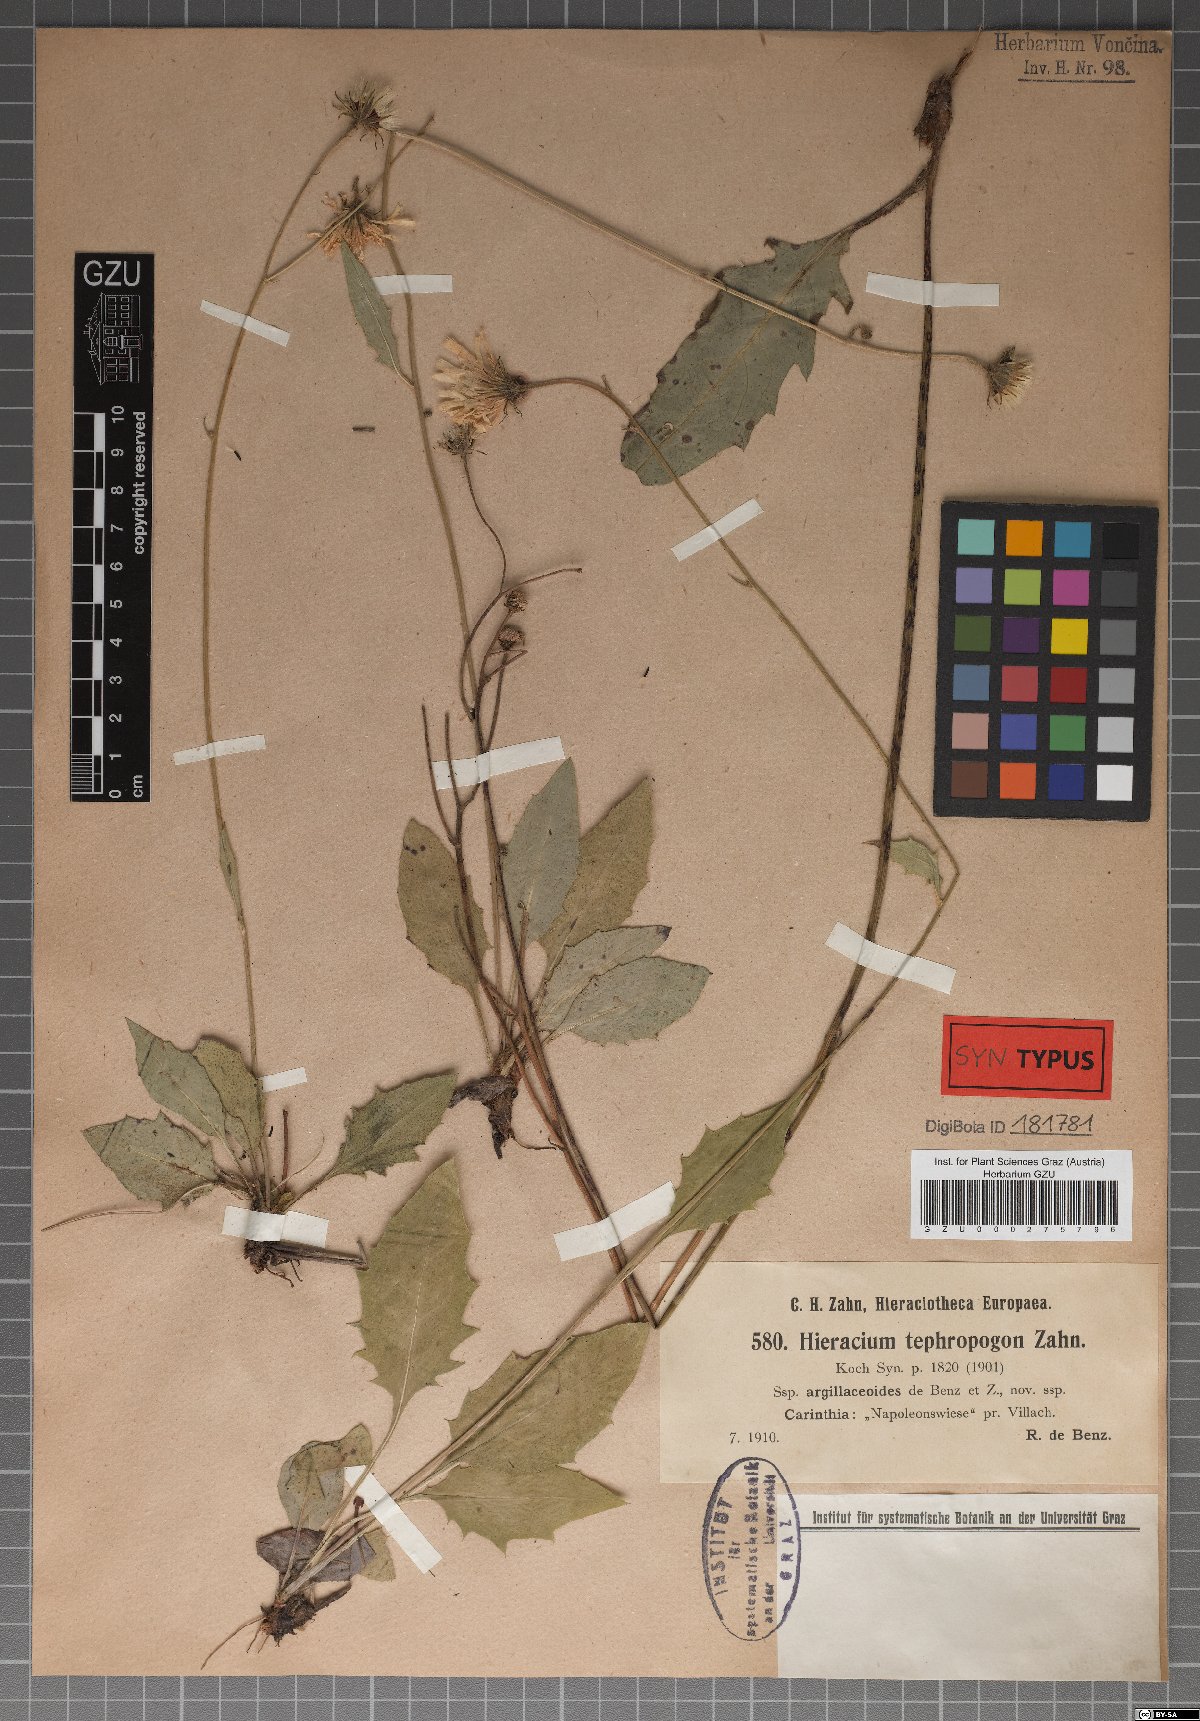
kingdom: Plantae
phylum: Tracheophyta
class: Magnoliopsida
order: Asterales
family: Asteraceae
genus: Hieracium
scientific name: Hieracium tephropogon
